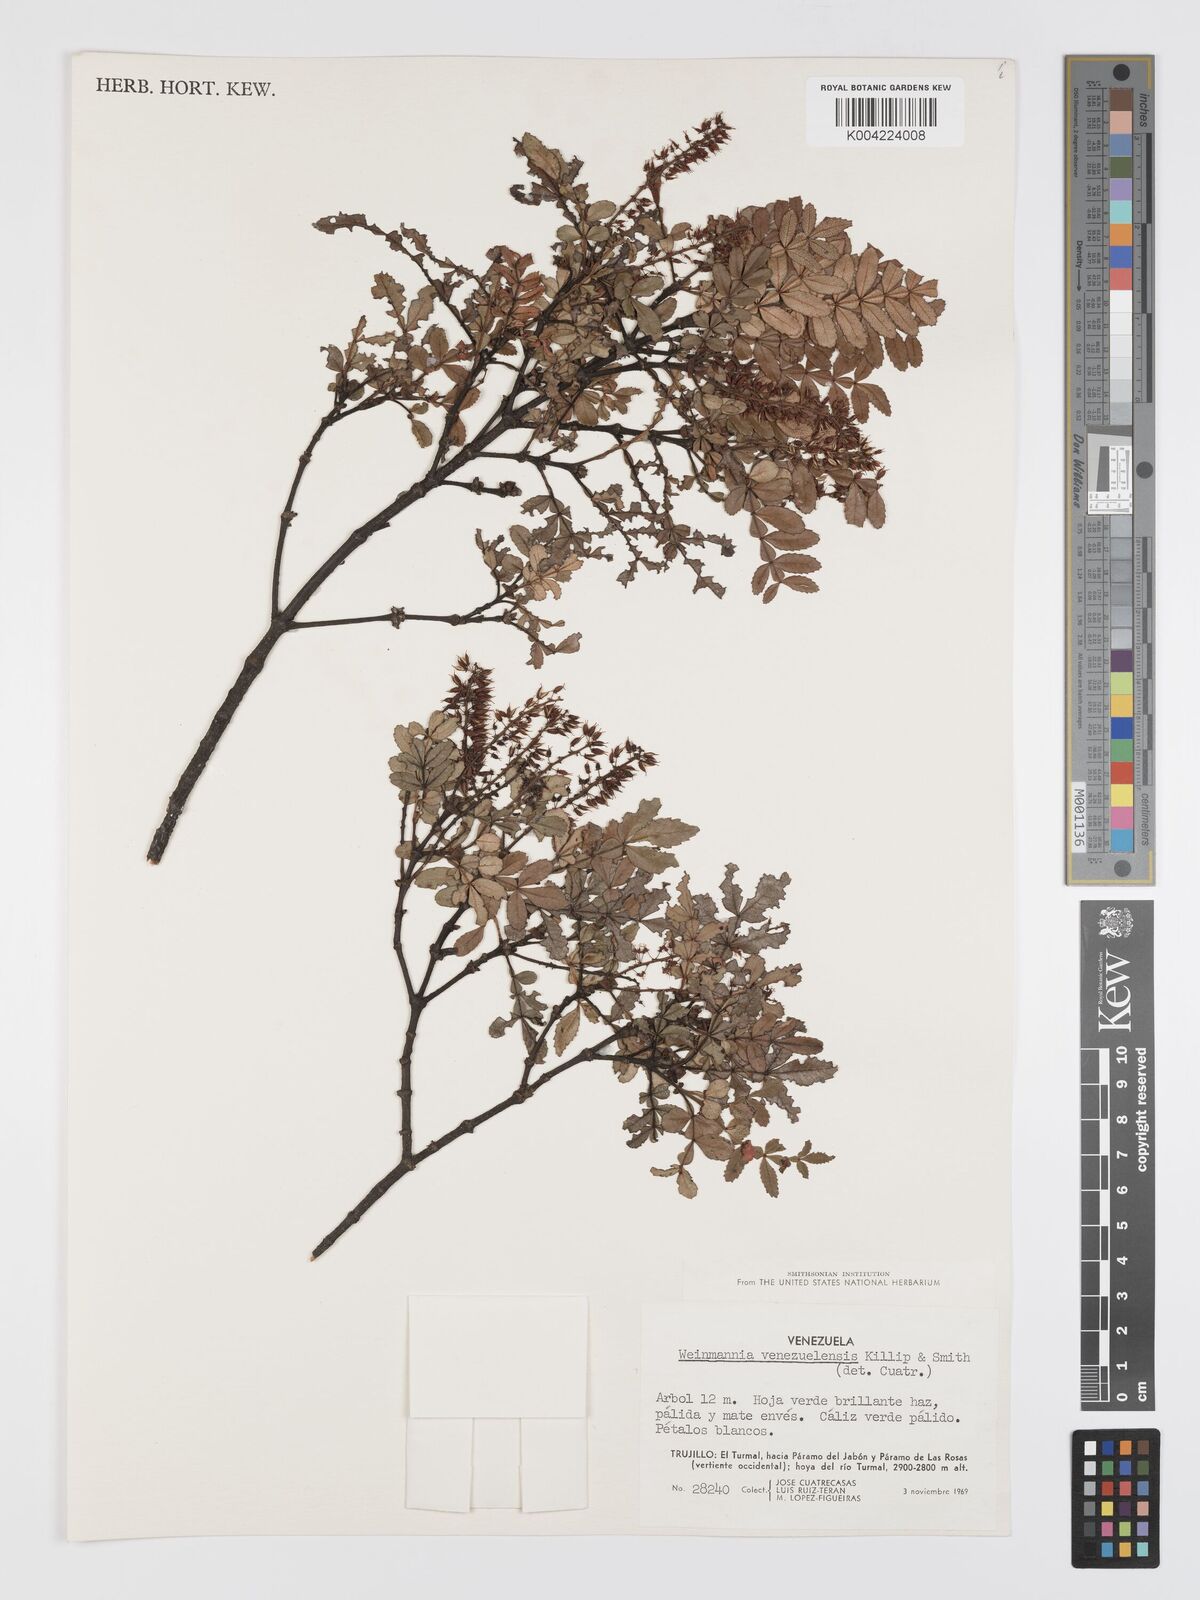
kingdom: Plantae
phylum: Tracheophyta
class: Magnoliopsida
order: Oxalidales
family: Cunoniaceae
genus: Weinmannia
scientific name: Weinmannia lansbergiana
